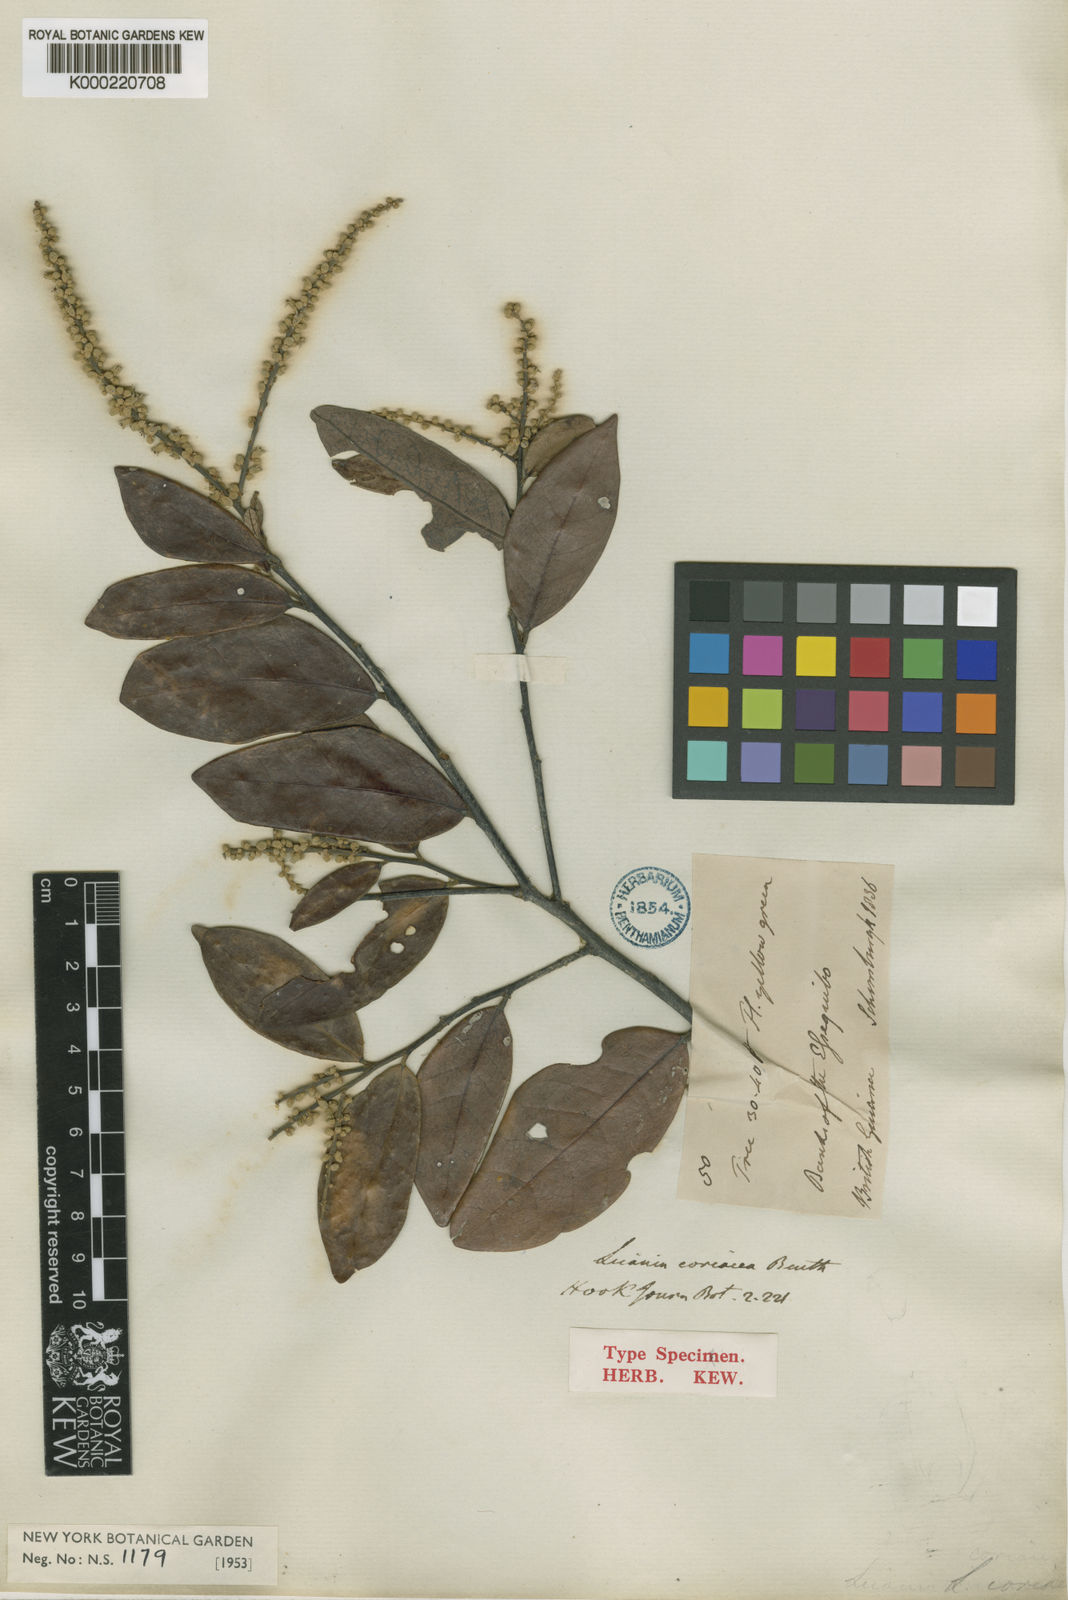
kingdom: Plantae
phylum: Tracheophyta
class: Magnoliopsida
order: Malpighiales
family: Chrysobalanaceae
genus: Licania
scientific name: Licania coriacea
